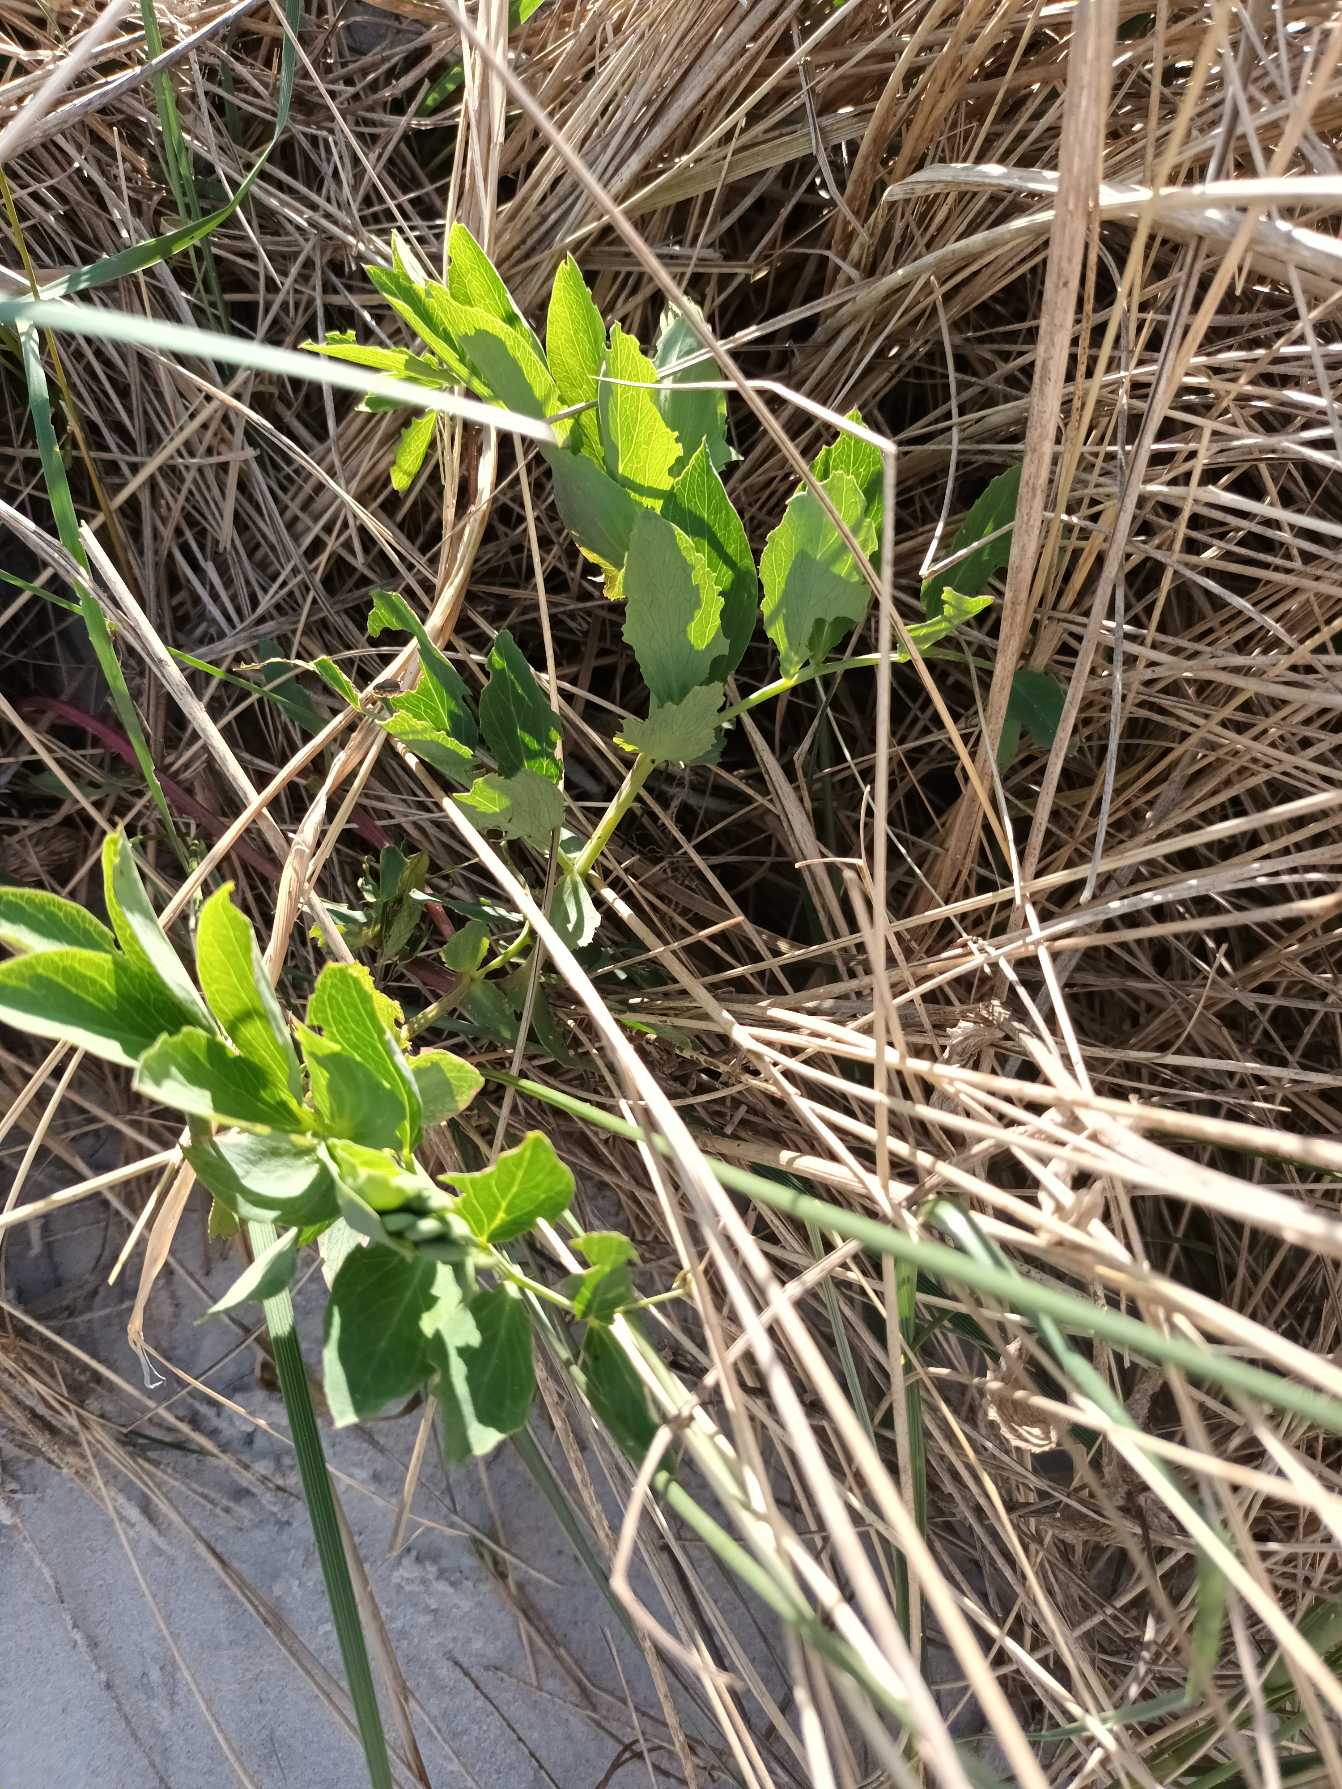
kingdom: Plantae
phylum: Tracheophyta
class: Magnoliopsida
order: Fabales
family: Fabaceae
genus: Lathyrus
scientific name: Lathyrus japonicus
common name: Strand-fladbælg
